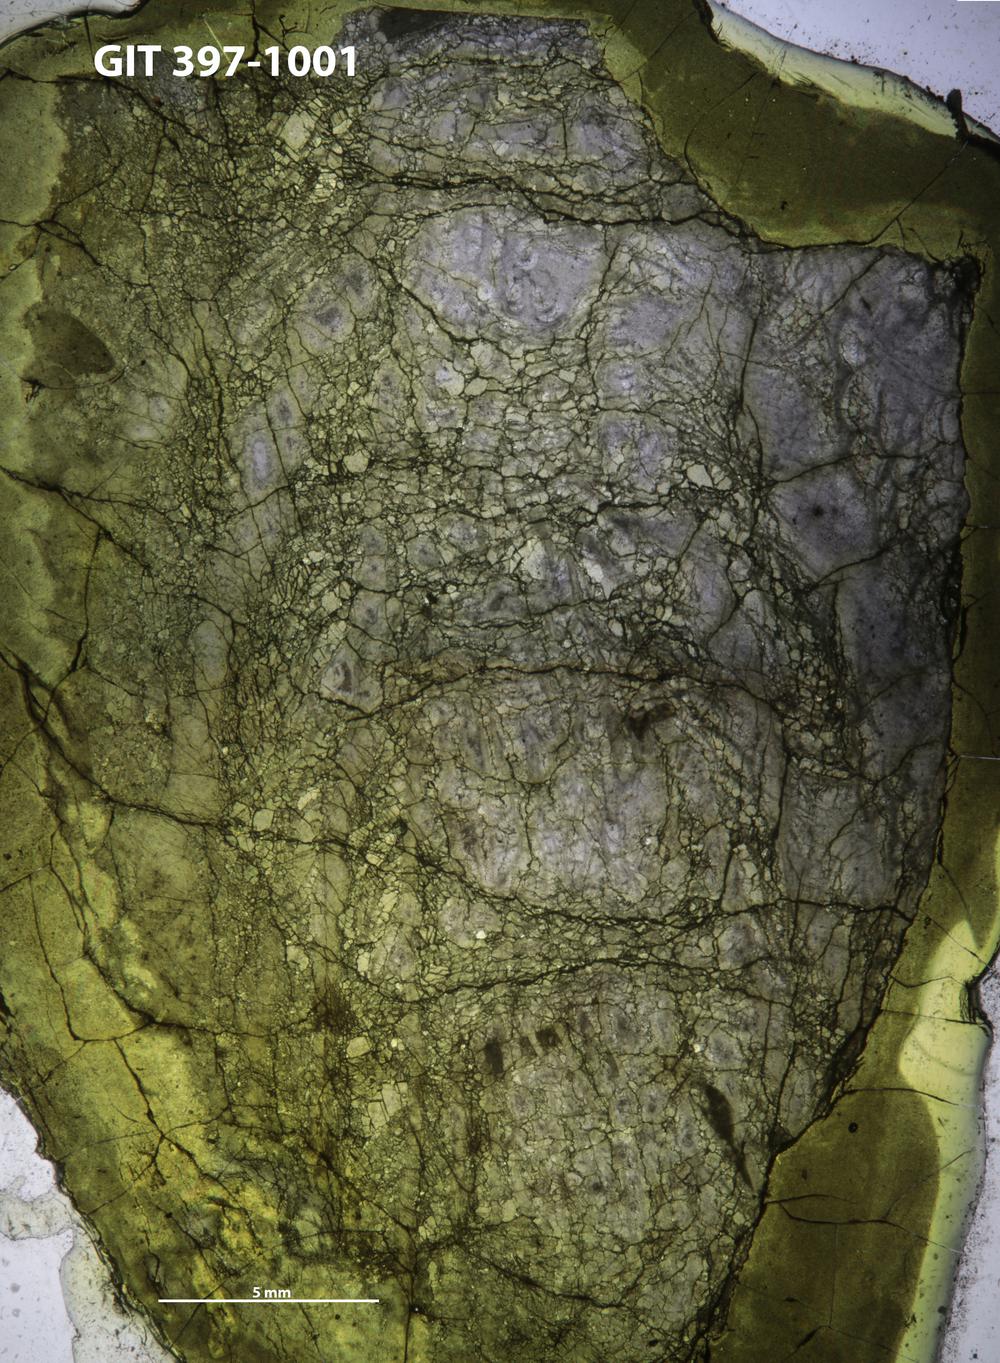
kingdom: Animalia
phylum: Cnidaria
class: Anthozoa
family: Paliphyllidae
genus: Paliphyllum
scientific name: Paliphyllum
